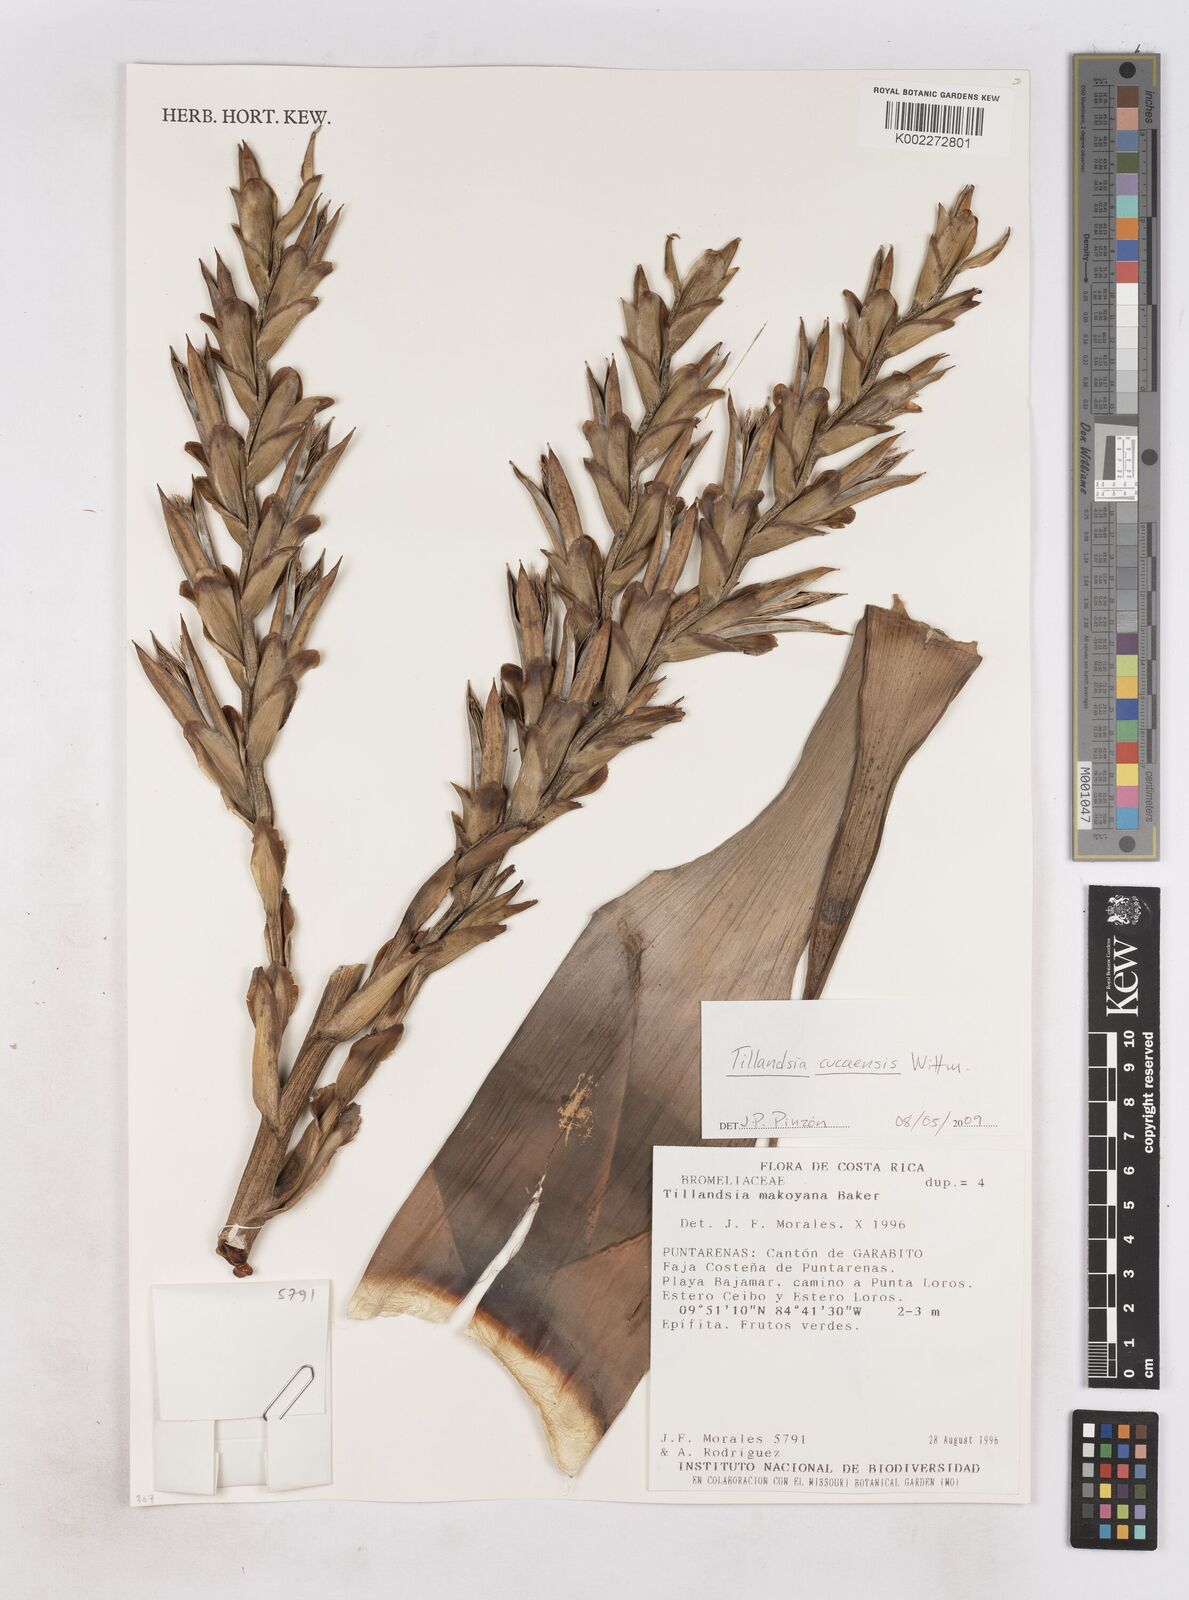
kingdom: Plantae
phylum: Tracheophyta
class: Liliopsida
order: Poales
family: Bromeliaceae
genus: Tillandsia
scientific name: Tillandsia makoyana
